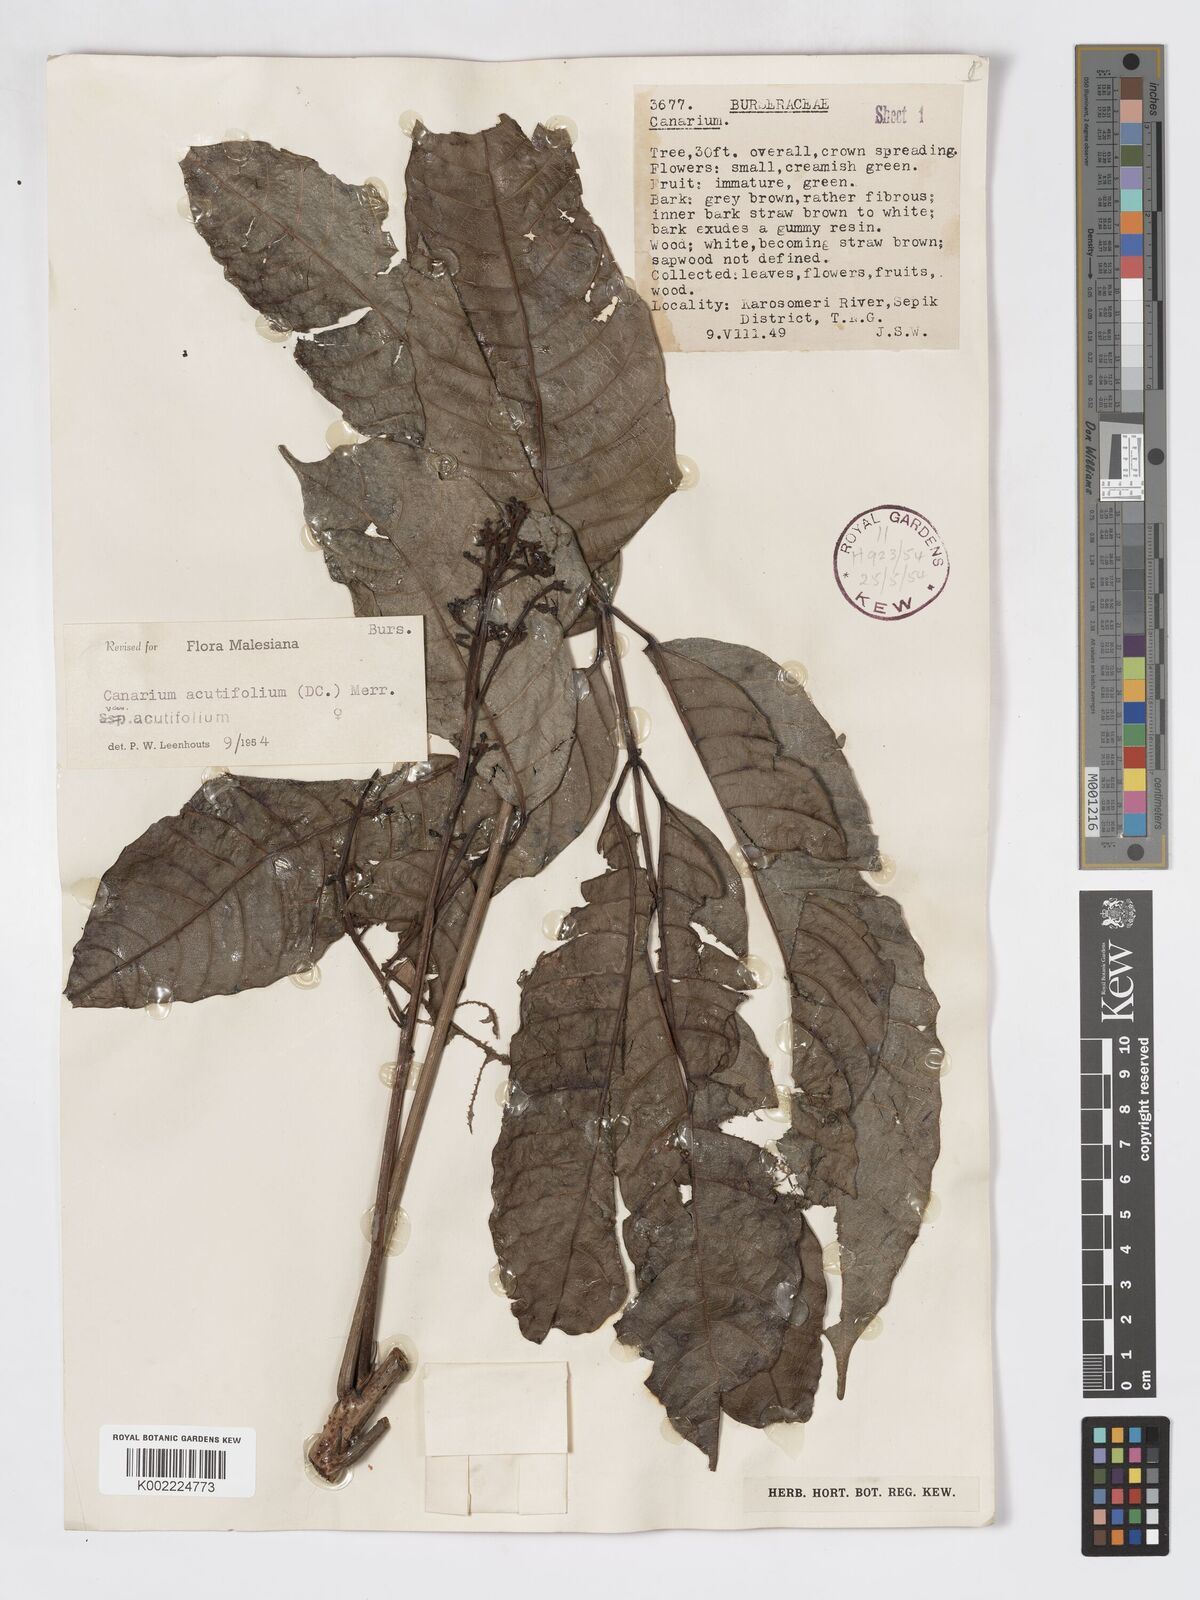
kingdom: Plantae
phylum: Tracheophyta
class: Magnoliopsida
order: Sapindales
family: Burseraceae
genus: Canarium
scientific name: Canarium acutifolium
